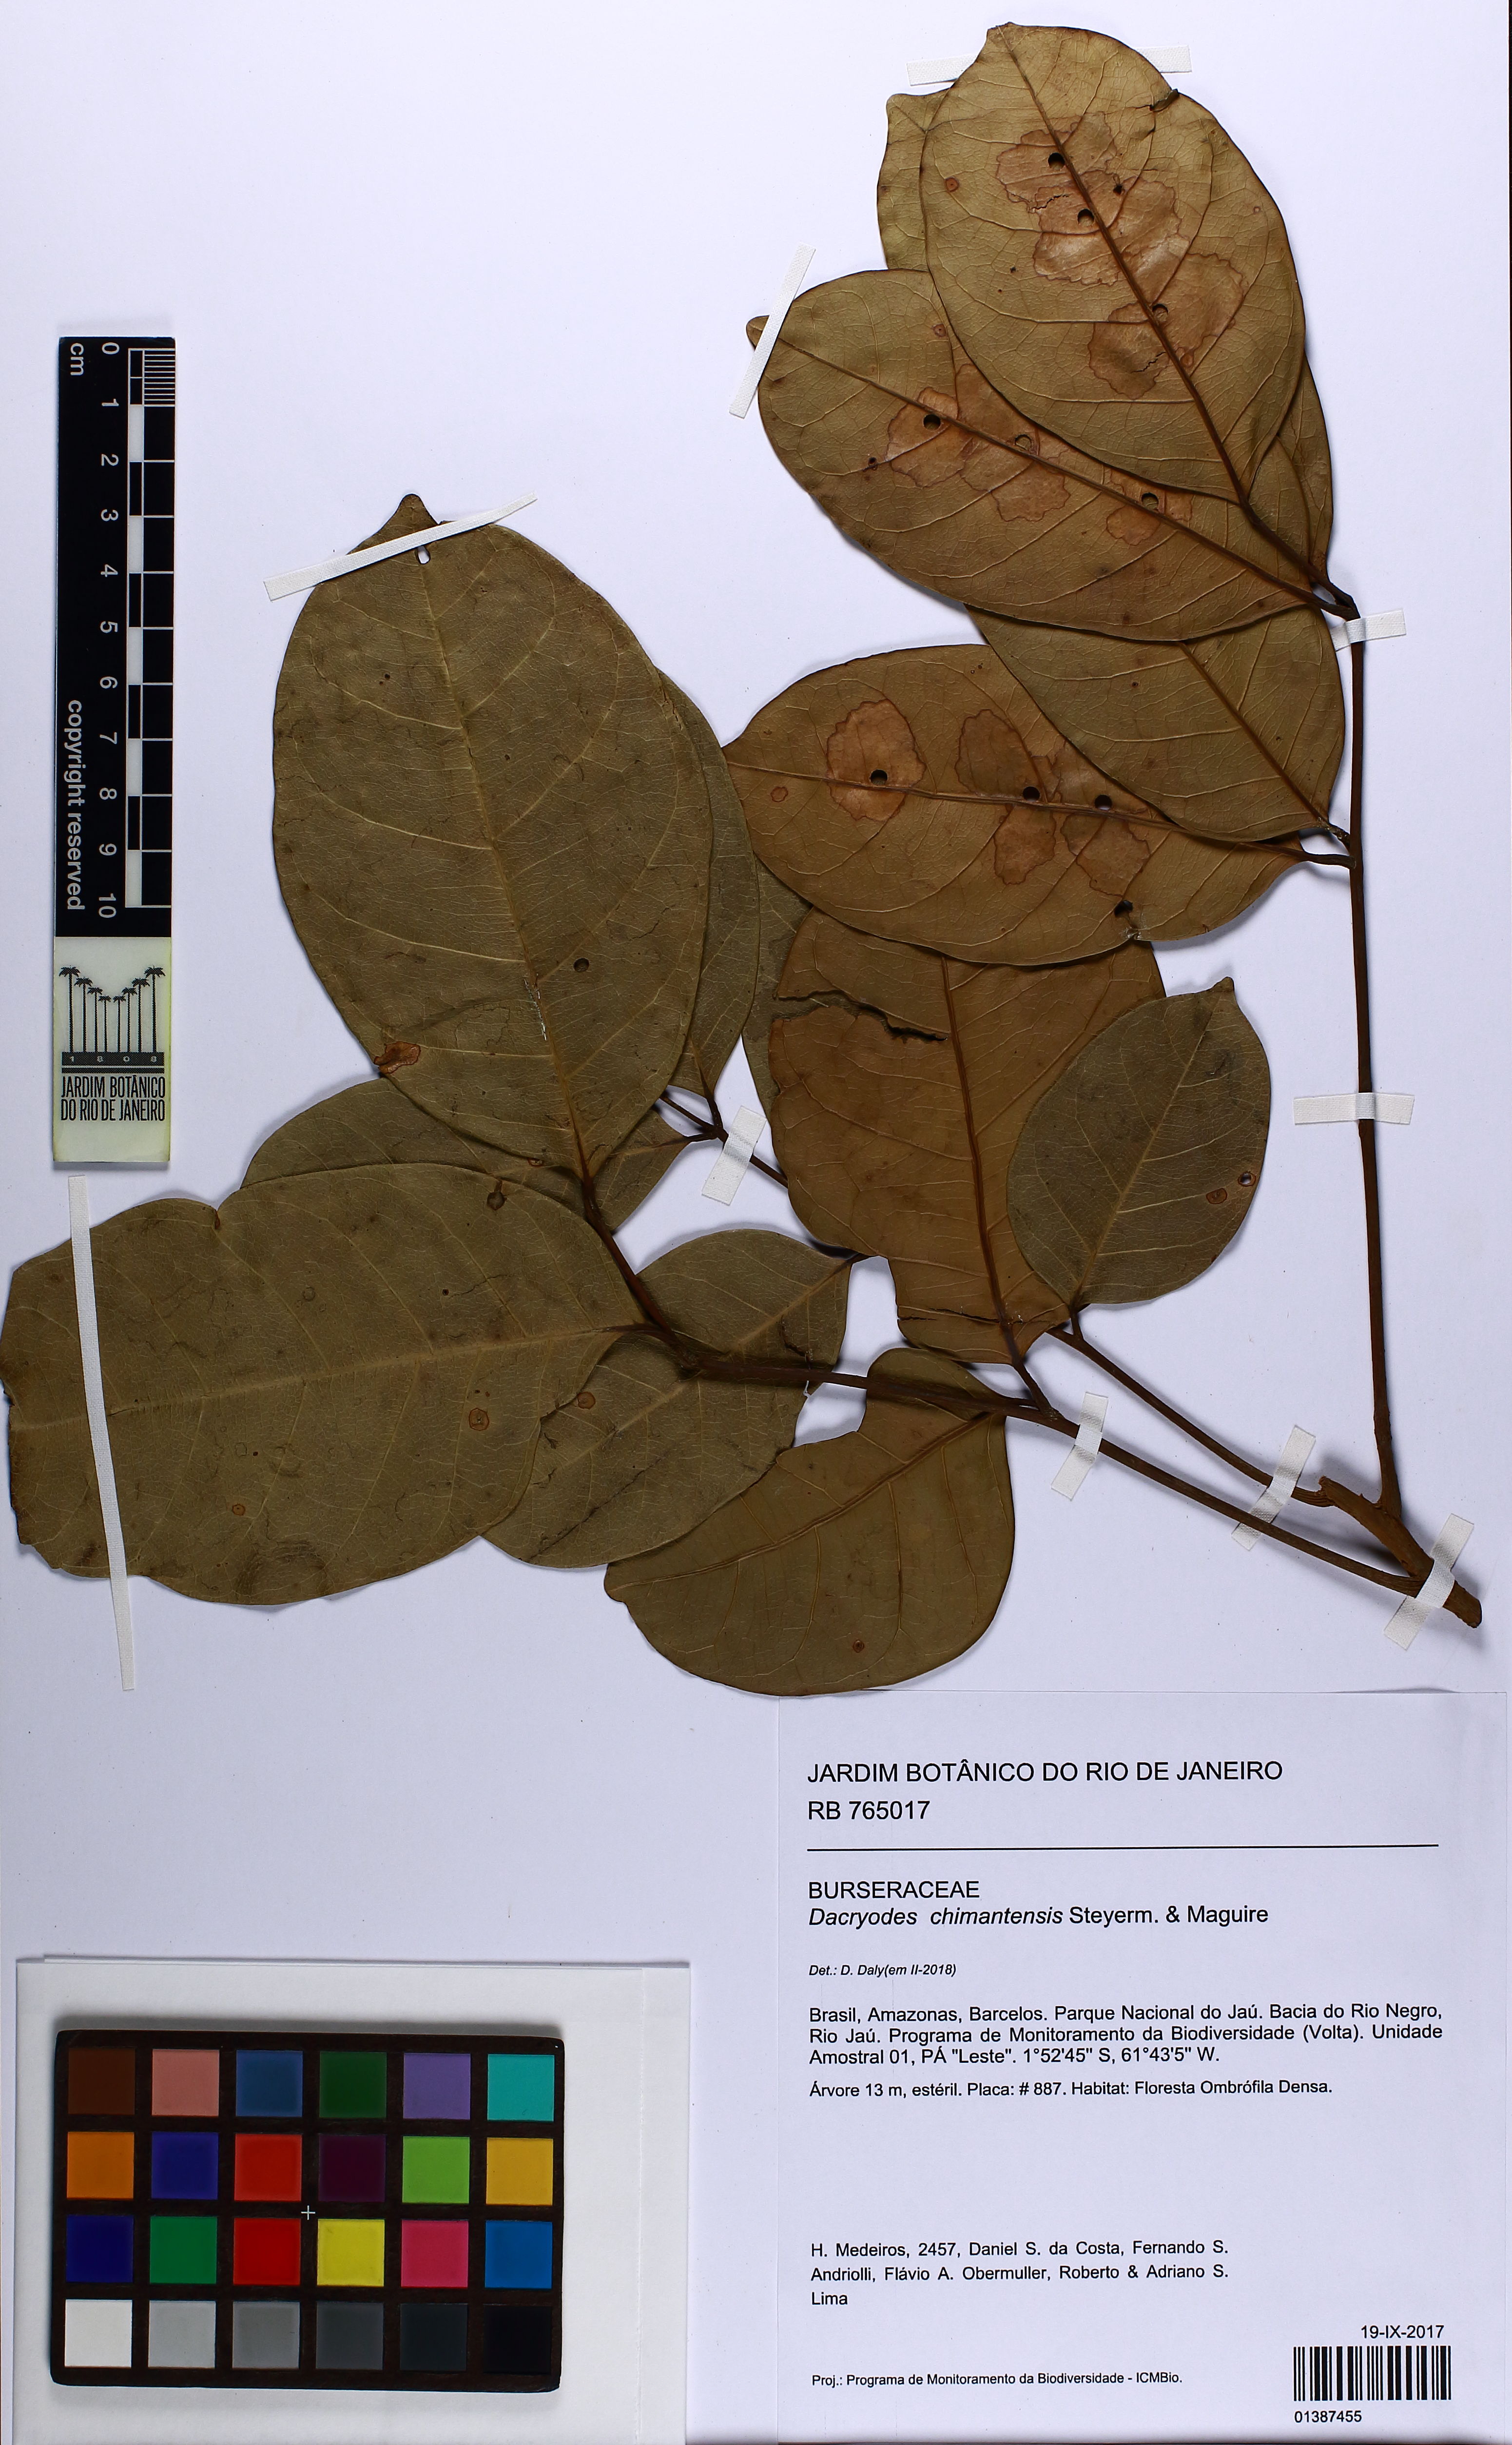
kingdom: Plantae
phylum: Tracheophyta
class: Magnoliopsida
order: Sapindales
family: Burseraceae
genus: Dacryodes
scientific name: Dacryodes chimantensis
